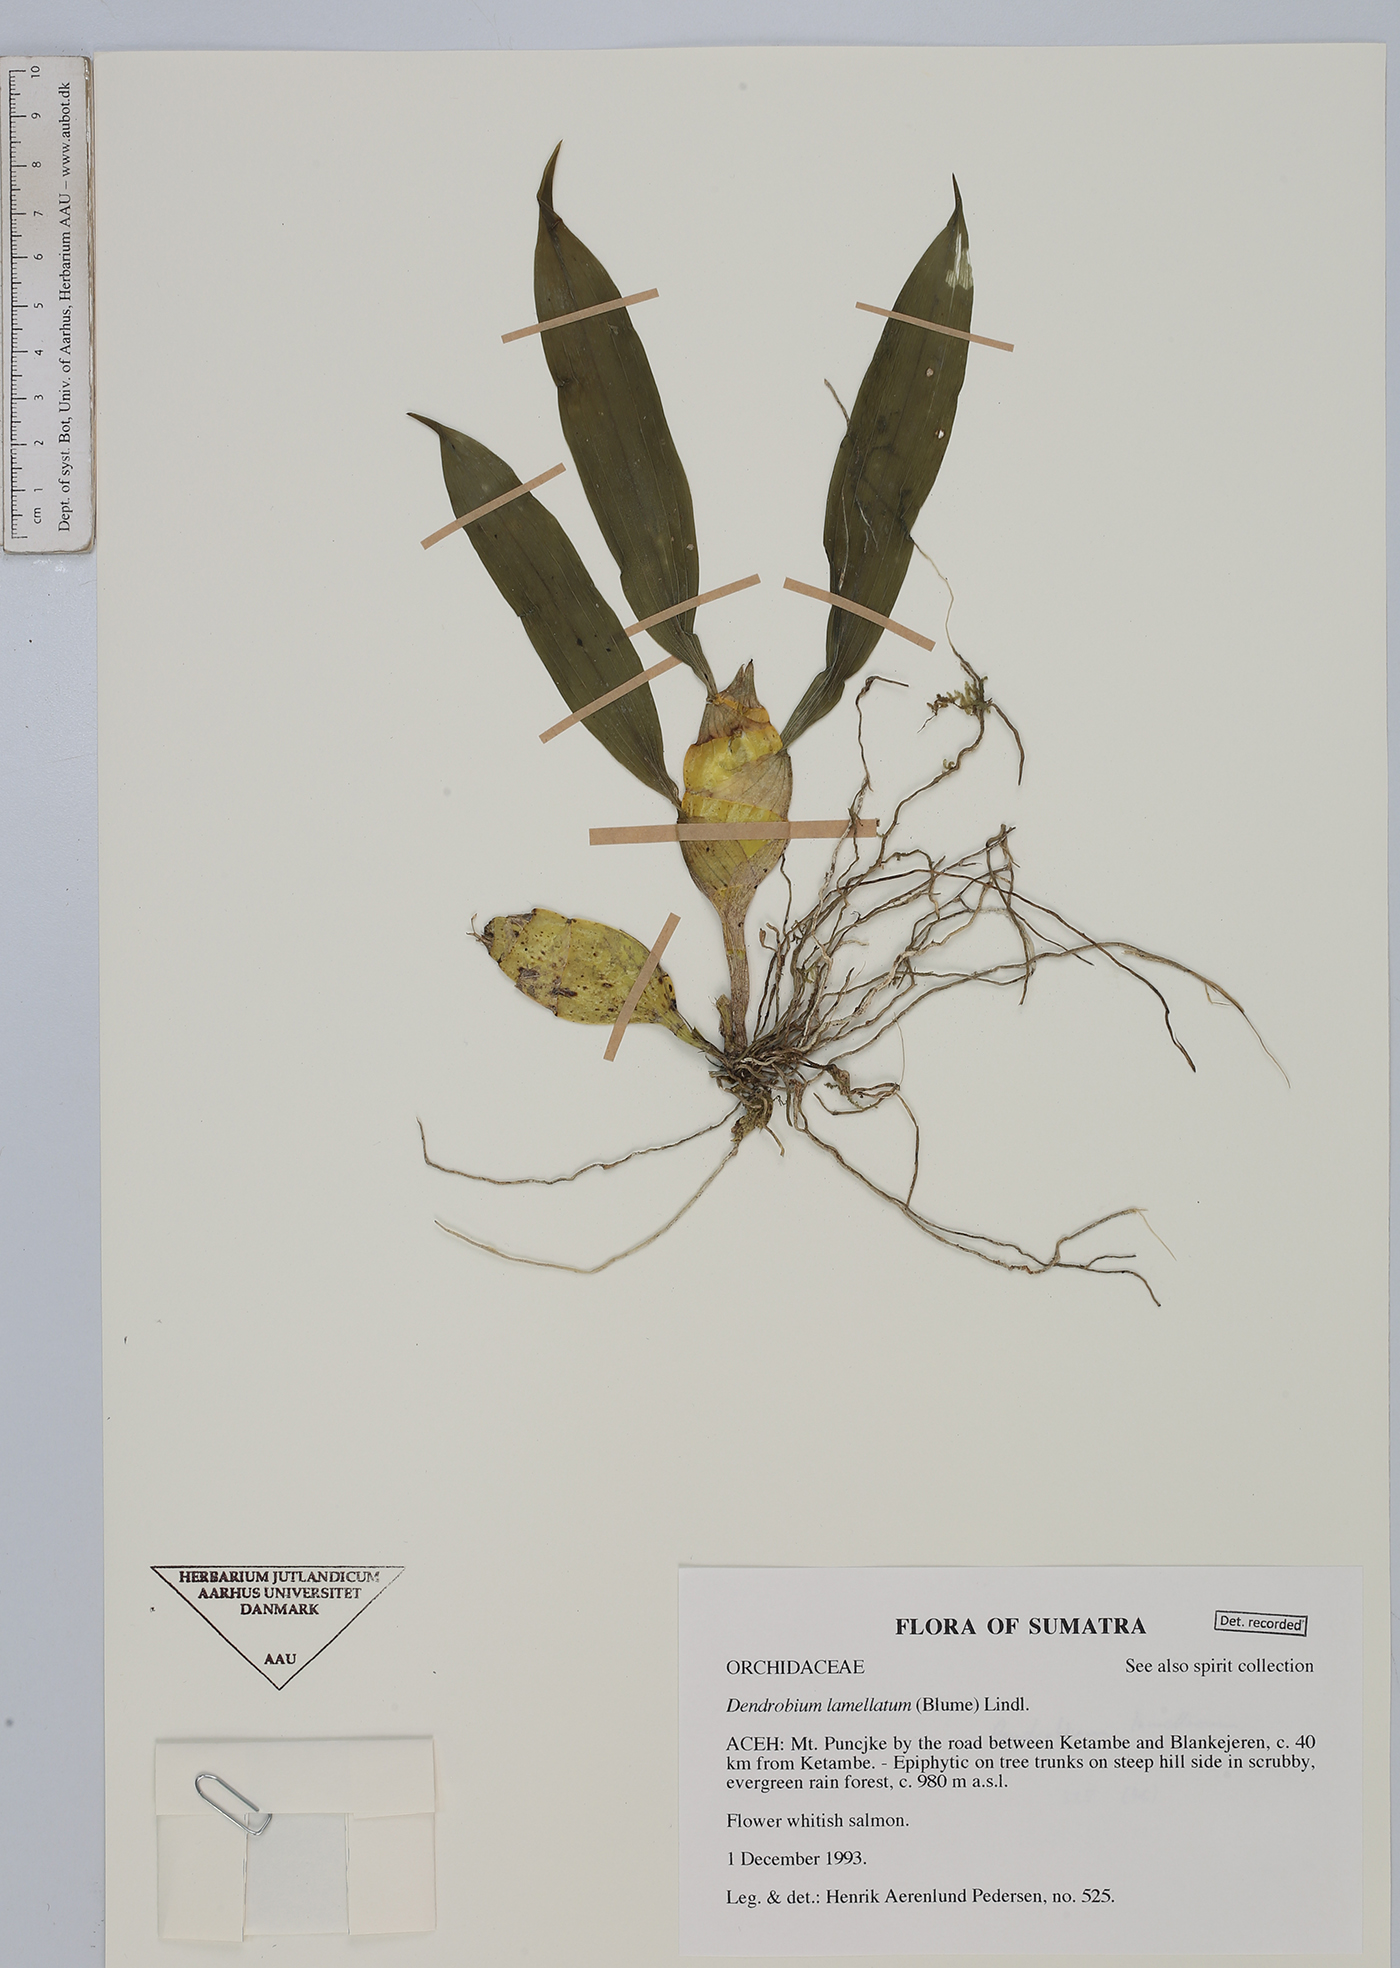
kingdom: Plantae
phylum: Tracheophyta
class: Liliopsida
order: Asparagales
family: Orchidaceae
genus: Dendrobium
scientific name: Dendrobium lamellatum
